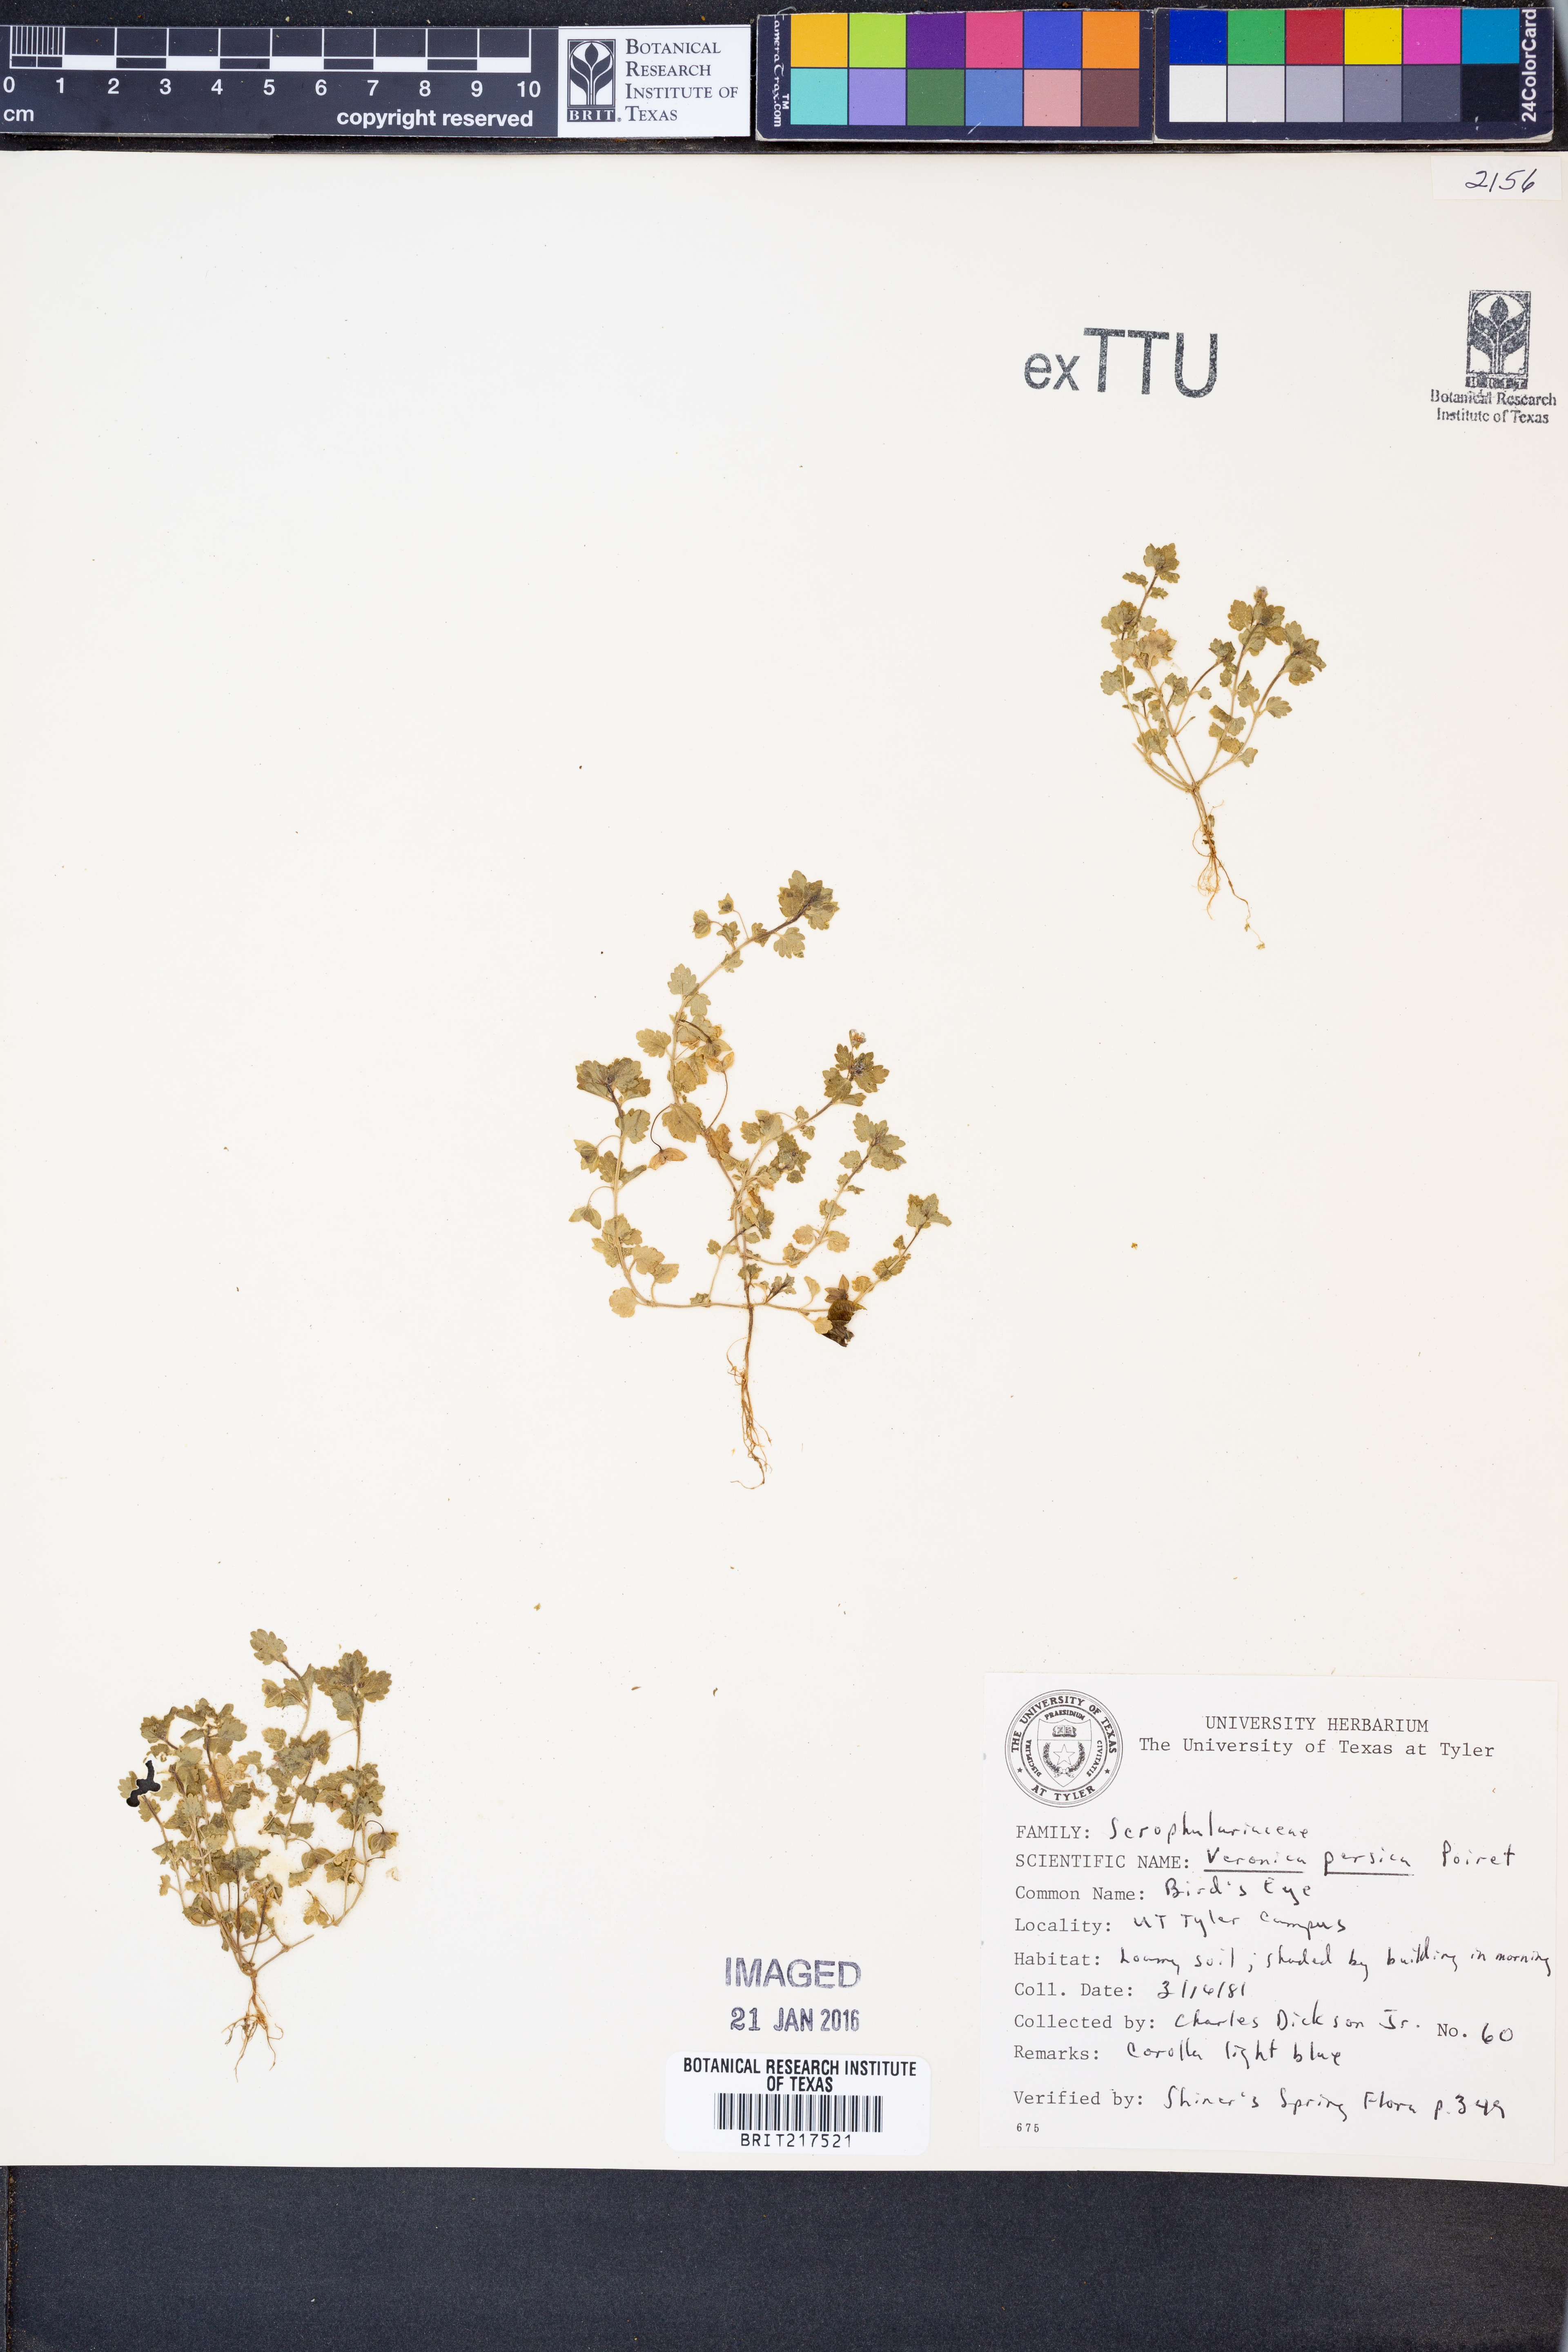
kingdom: Plantae
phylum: Tracheophyta
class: Magnoliopsida
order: Lamiales
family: Plantaginaceae
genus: Veronica
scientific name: Veronica persica
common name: Common field-speedwell
